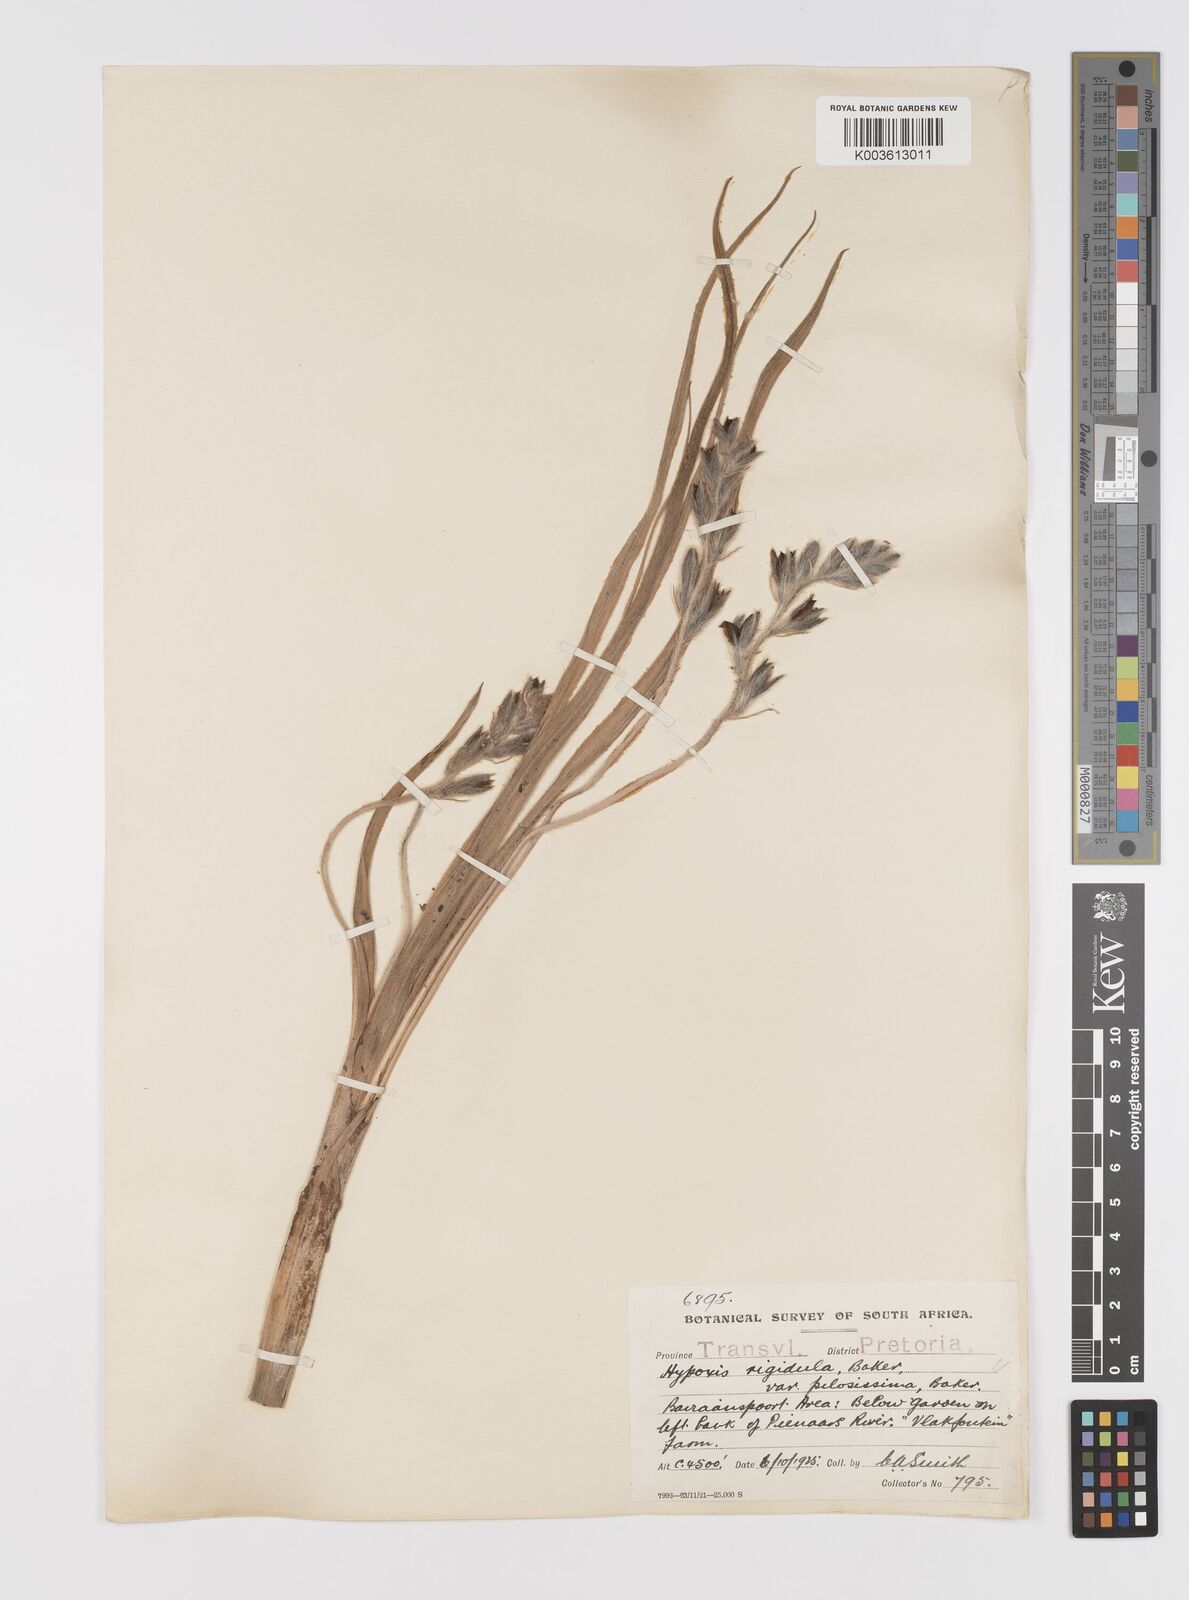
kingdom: Plantae
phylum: Tracheophyta
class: Liliopsida
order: Asparagales
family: Hypoxidaceae
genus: Hypoxis
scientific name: Hypoxis rigidula
